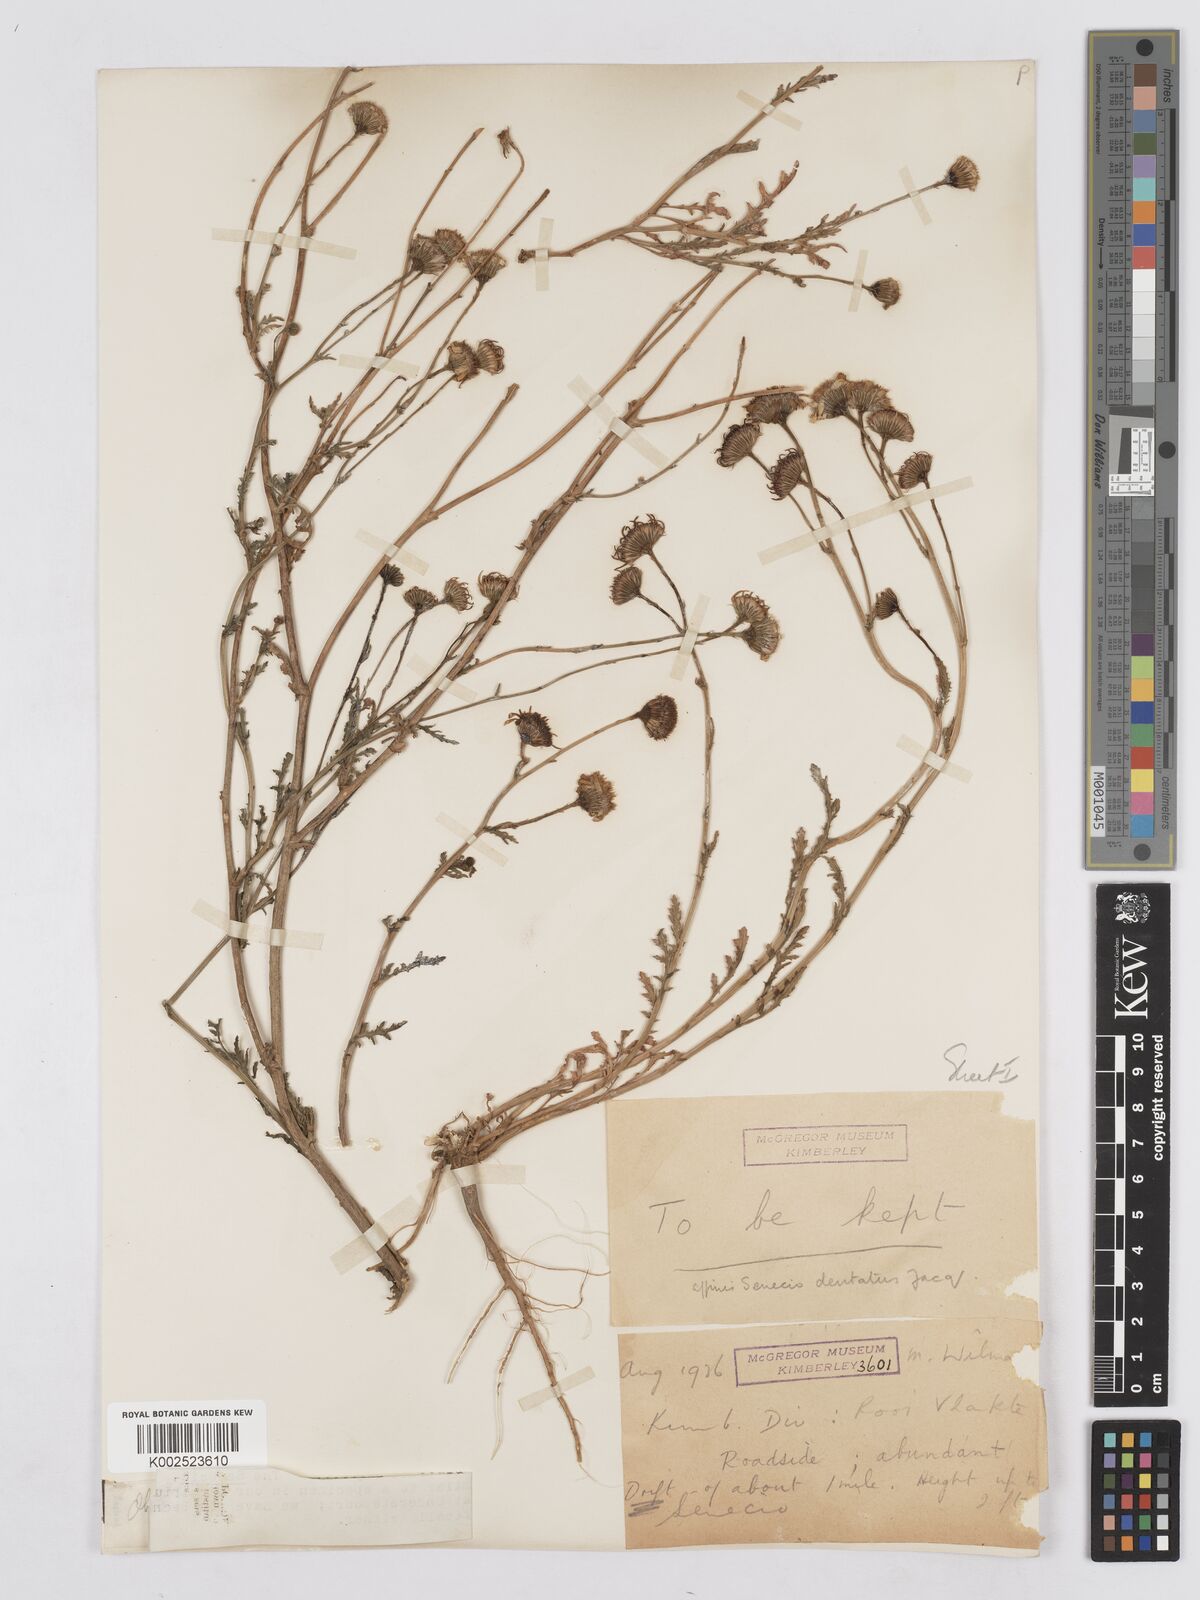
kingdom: Plantae
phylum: Tracheophyta
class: Magnoliopsida
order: Asterales
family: Asteraceae
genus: Senecio
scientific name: Senecio
